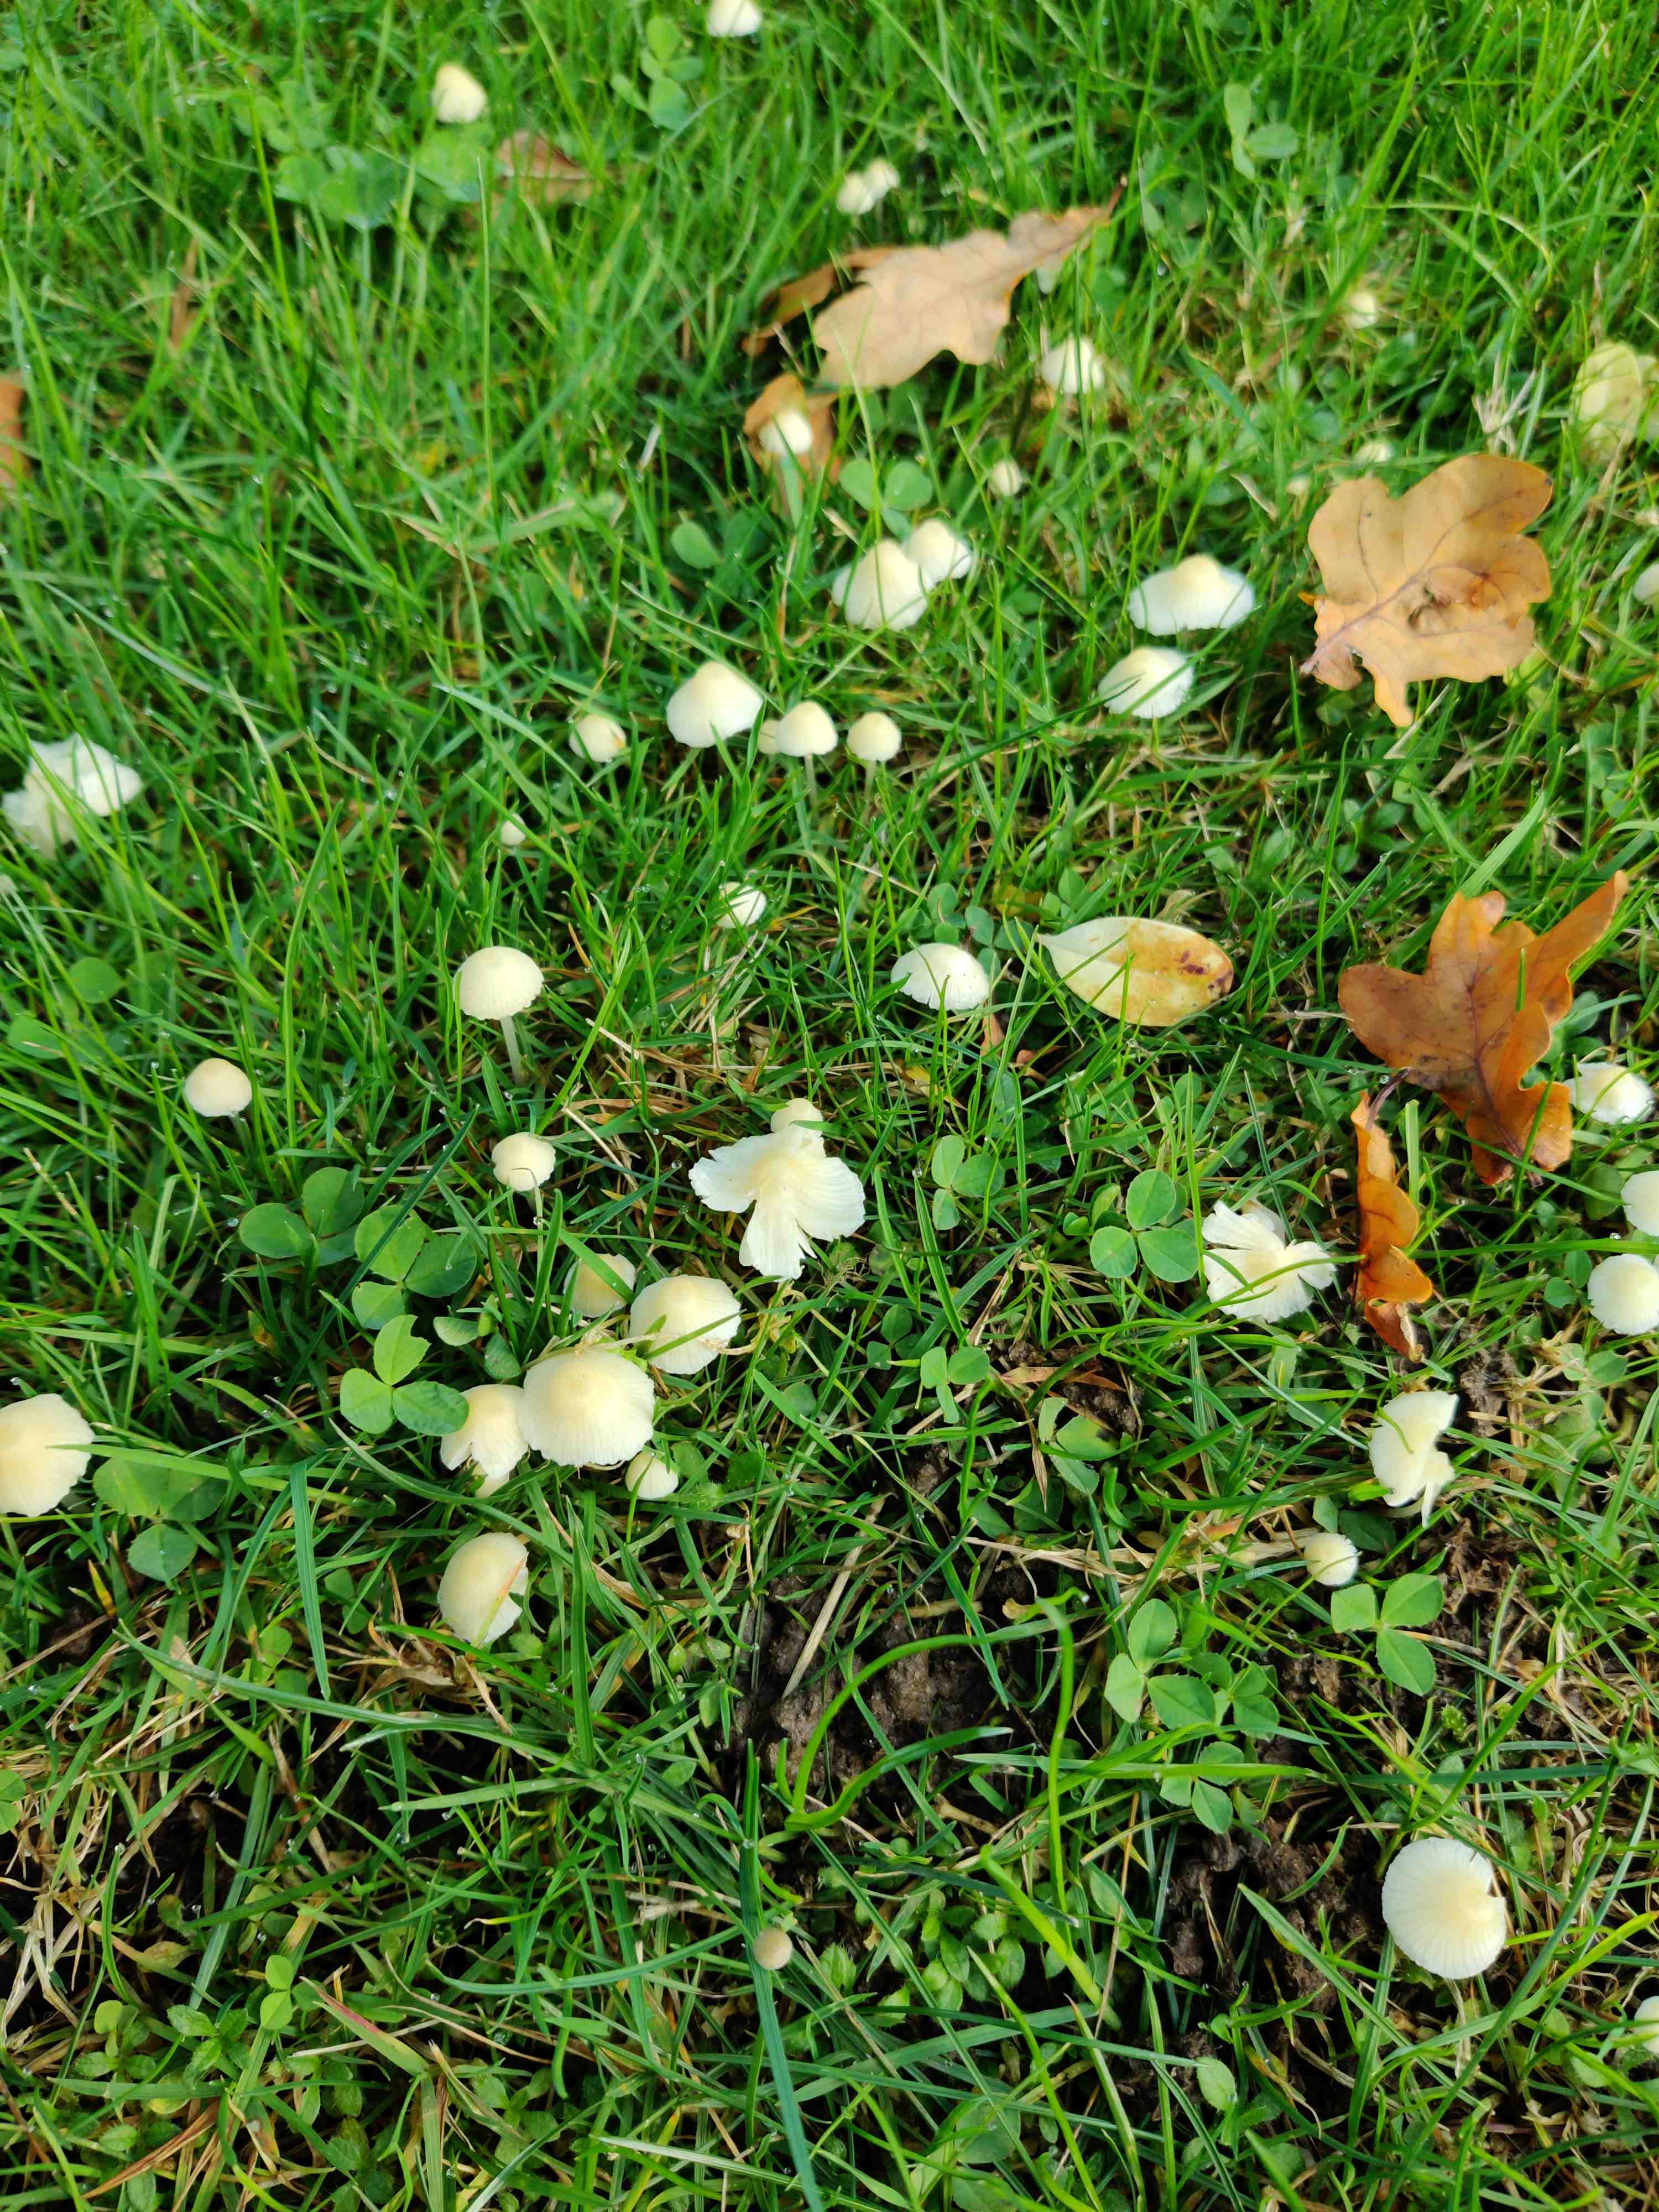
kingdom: Fungi
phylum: Basidiomycota
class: Agaricomycetes
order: Agaricales
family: Mycenaceae
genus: Atheniella
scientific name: Atheniella flavoalba
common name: gulhvid huesvamp
